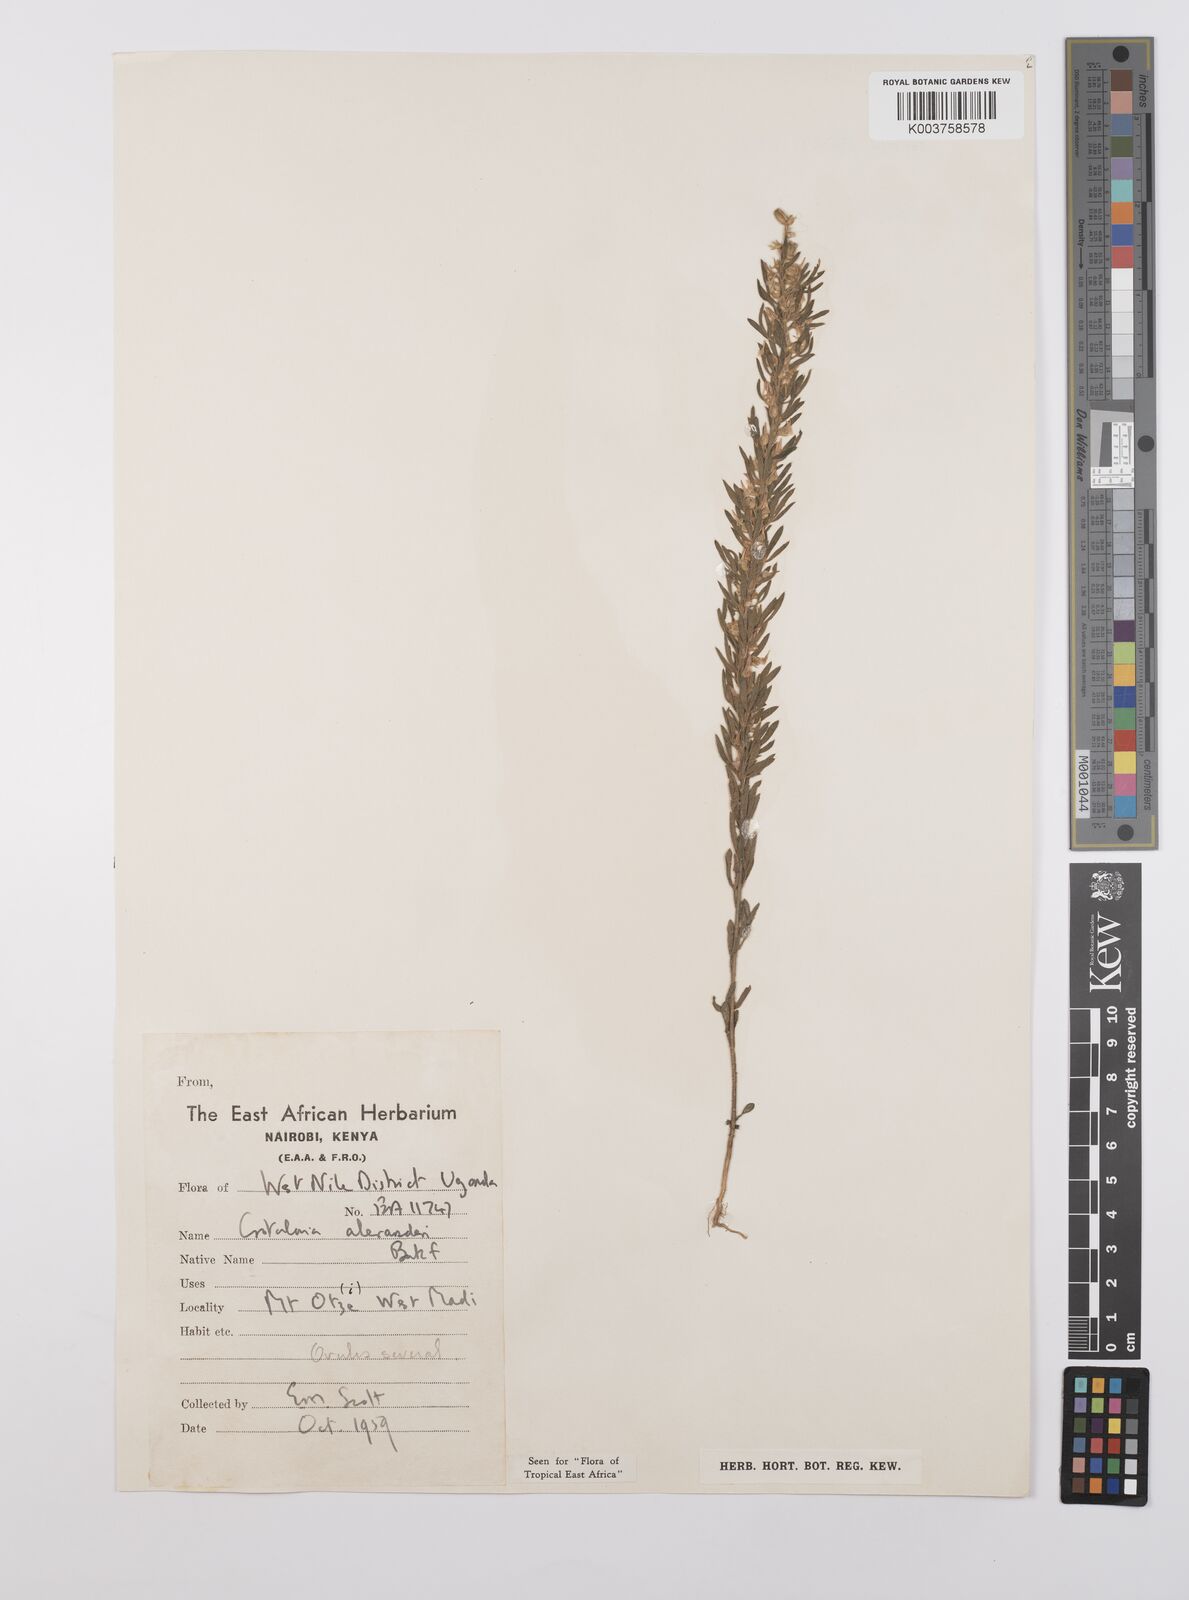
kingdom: Plantae
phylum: Tracheophyta
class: Magnoliopsida
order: Fabales
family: Fabaceae
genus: Crotalaria
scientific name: Crotalaria alexandri
